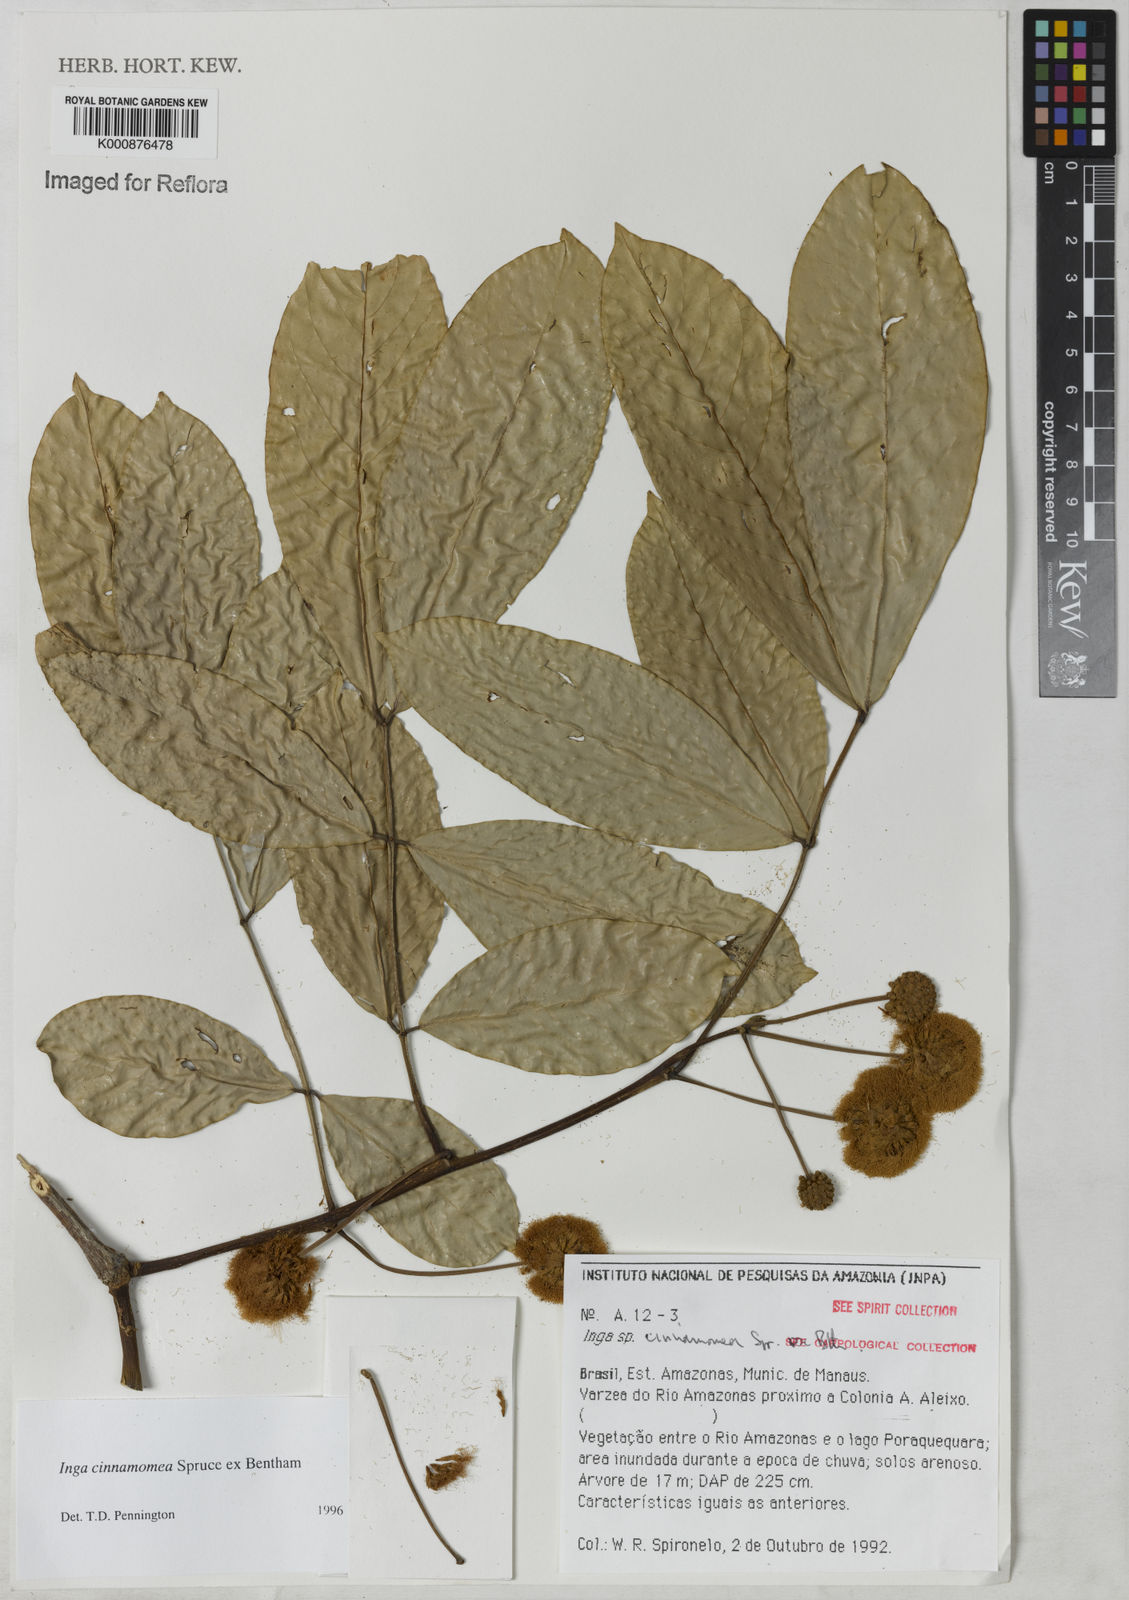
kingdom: Plantae
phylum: Tracheophyta
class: Magnoliopsida
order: Fabales
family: Fabaceae
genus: Inga
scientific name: Inga cinnamomea
